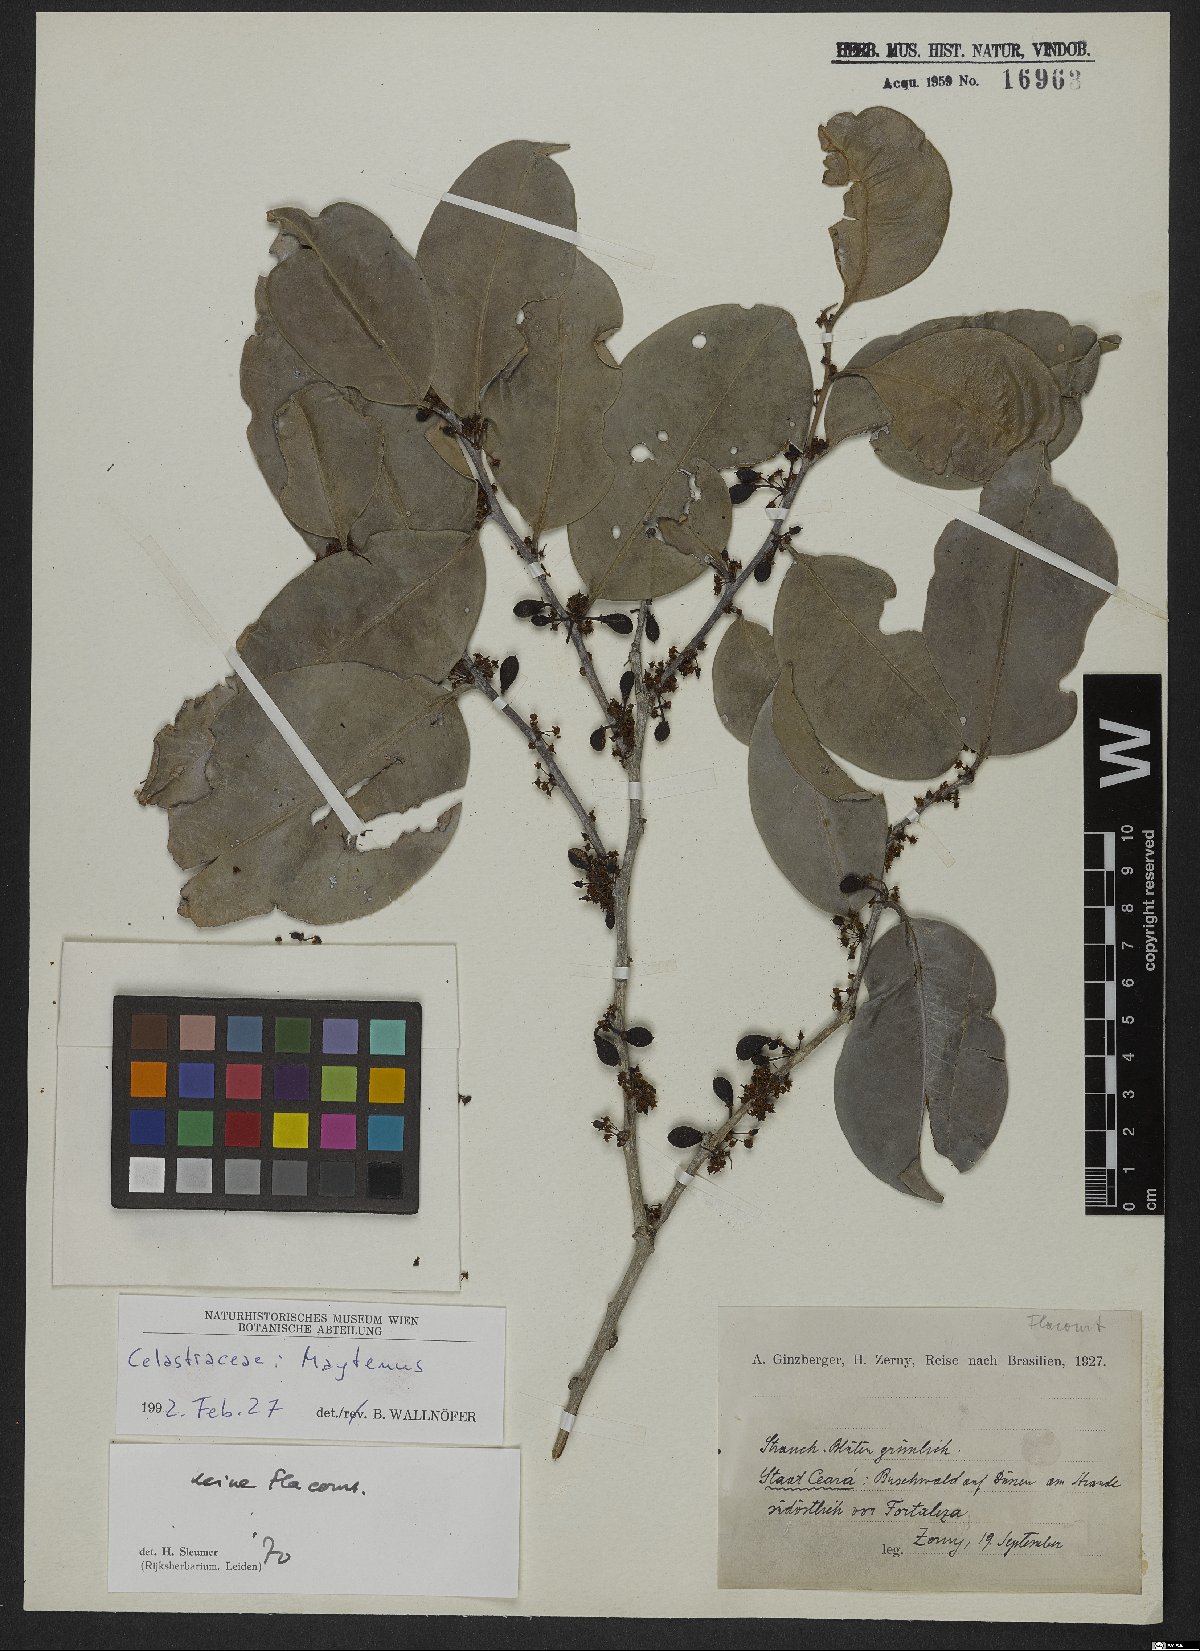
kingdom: Plantae
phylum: Tracheophyta
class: Magnoliopsida
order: Celastrales
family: Celastraceae
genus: Maytenus
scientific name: Maytenus
